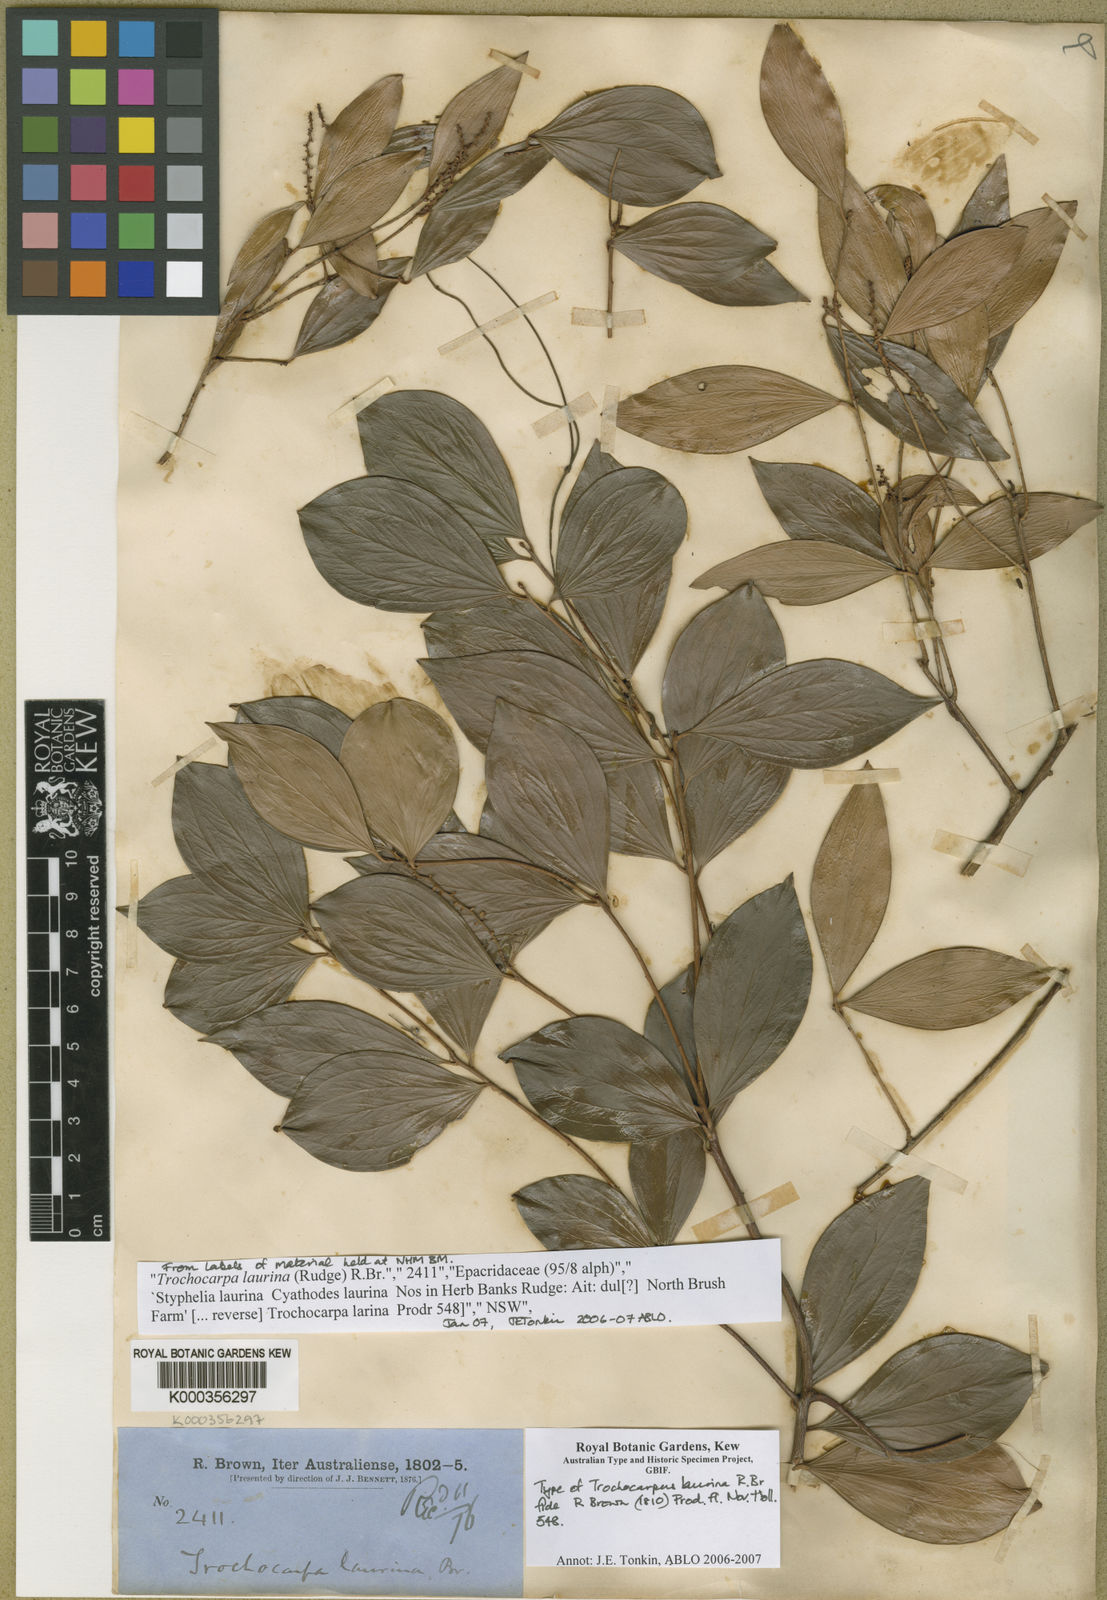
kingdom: Plantae
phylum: Tracheophyta
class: Magnoliopsida
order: Ericales
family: Ericaceae
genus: Trochocarpa
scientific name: Trochocarpa laurina
